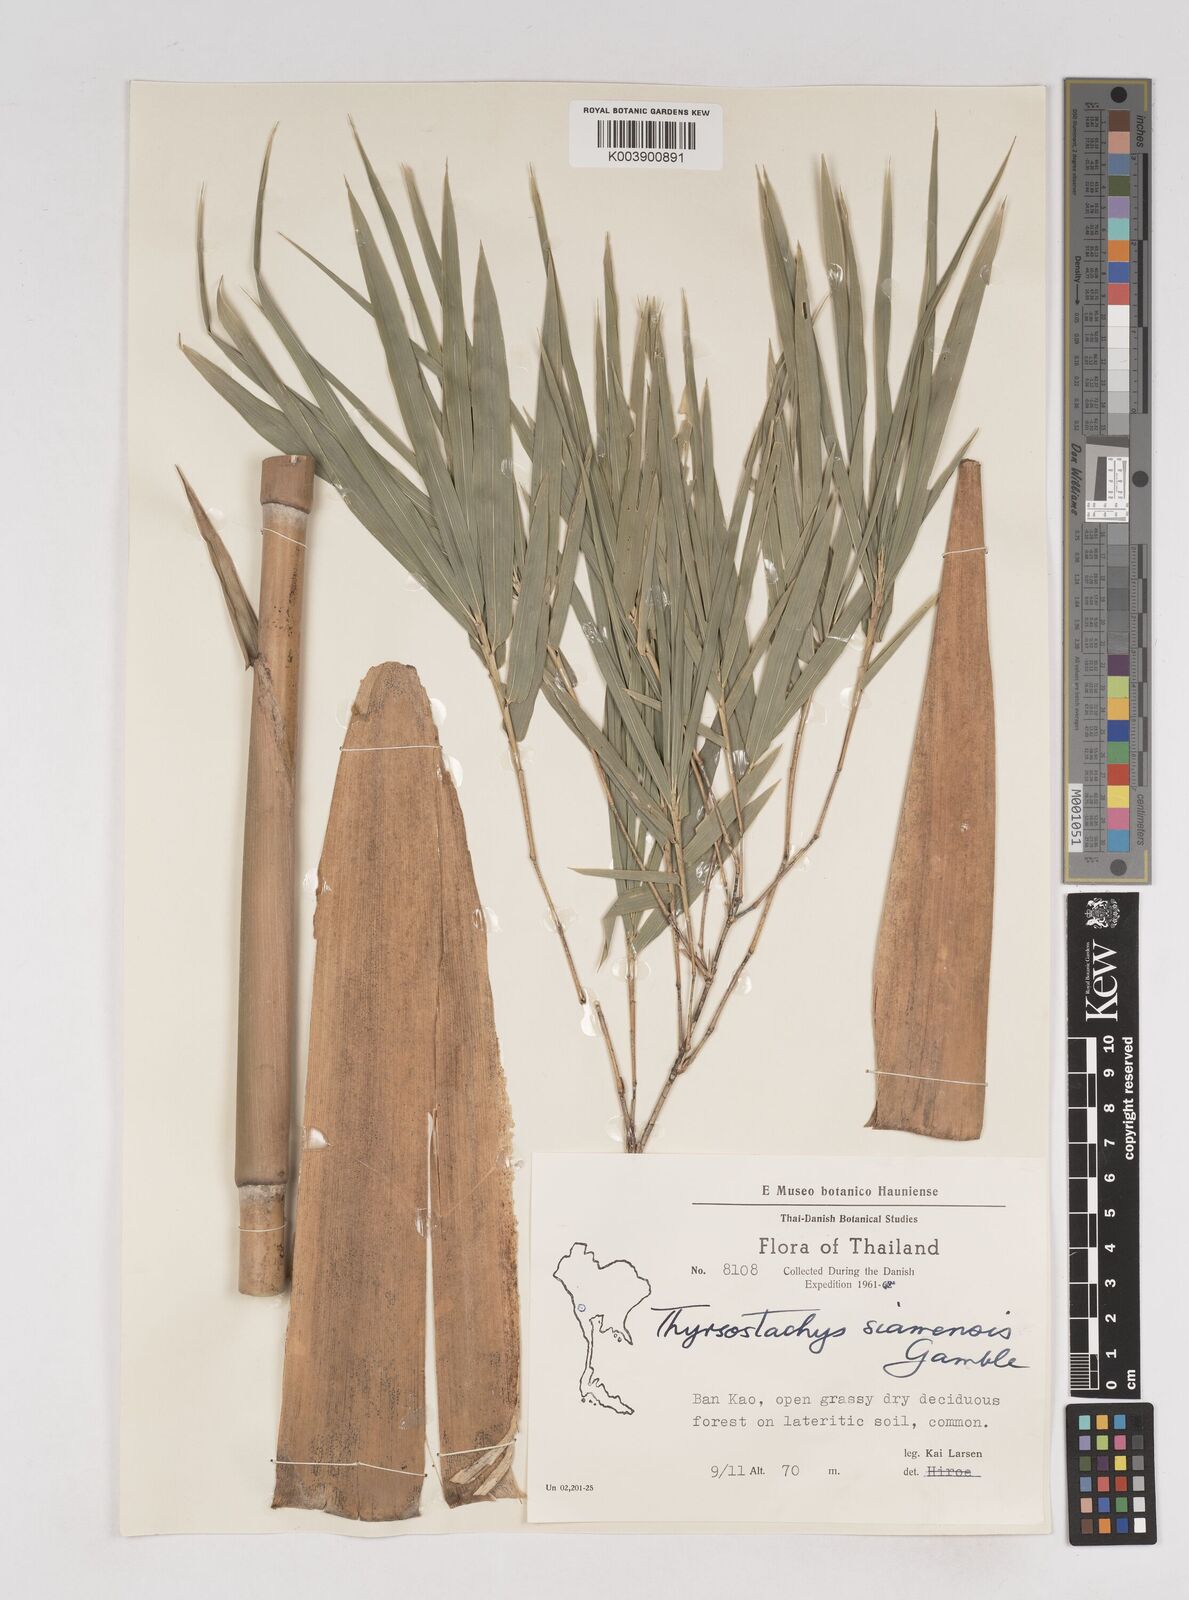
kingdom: Plantae
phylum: Tracheophyta
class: Liliopsida
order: Poales
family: Poaceae
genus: Thyrsostachys
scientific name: Thyrsostachys siamensis
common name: Thailand bamboo
